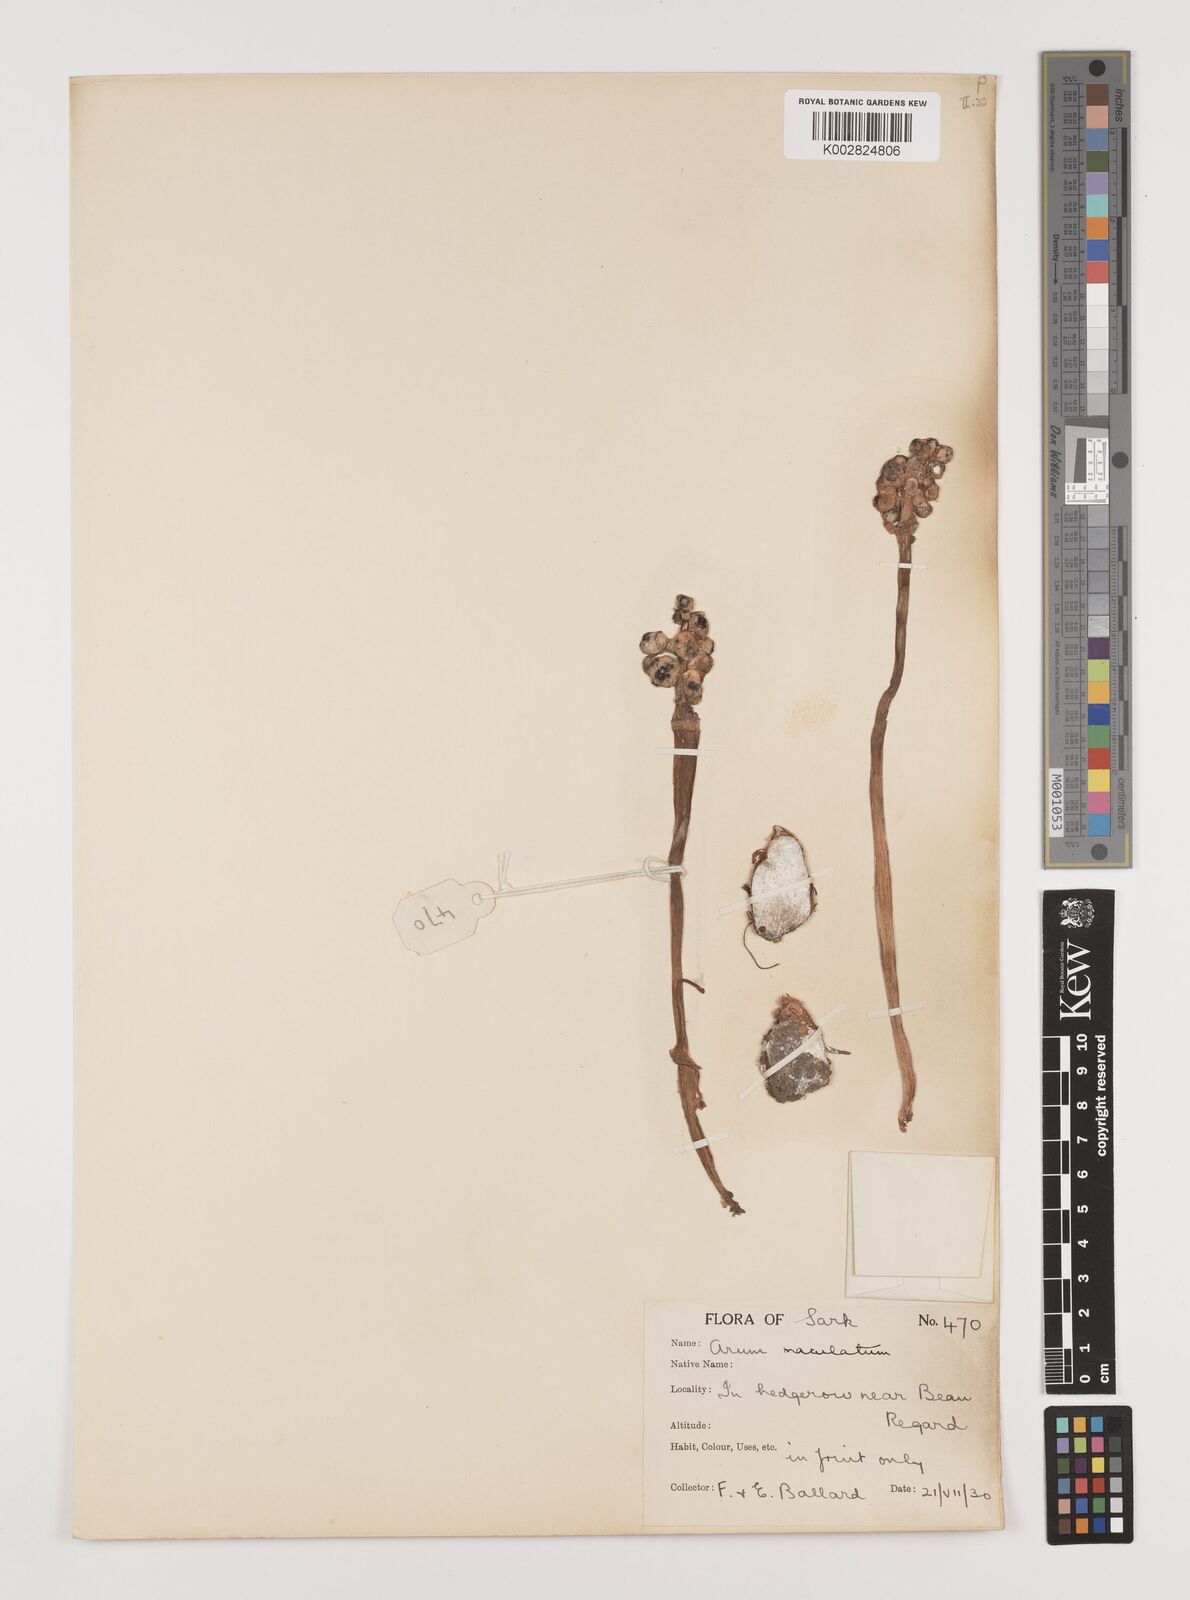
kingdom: Plantae
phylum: Tracheophyta
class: Liliopsida
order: Alismatales
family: Araceae
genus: Arum
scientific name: Arum maculatum
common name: Lords-and-ladies
